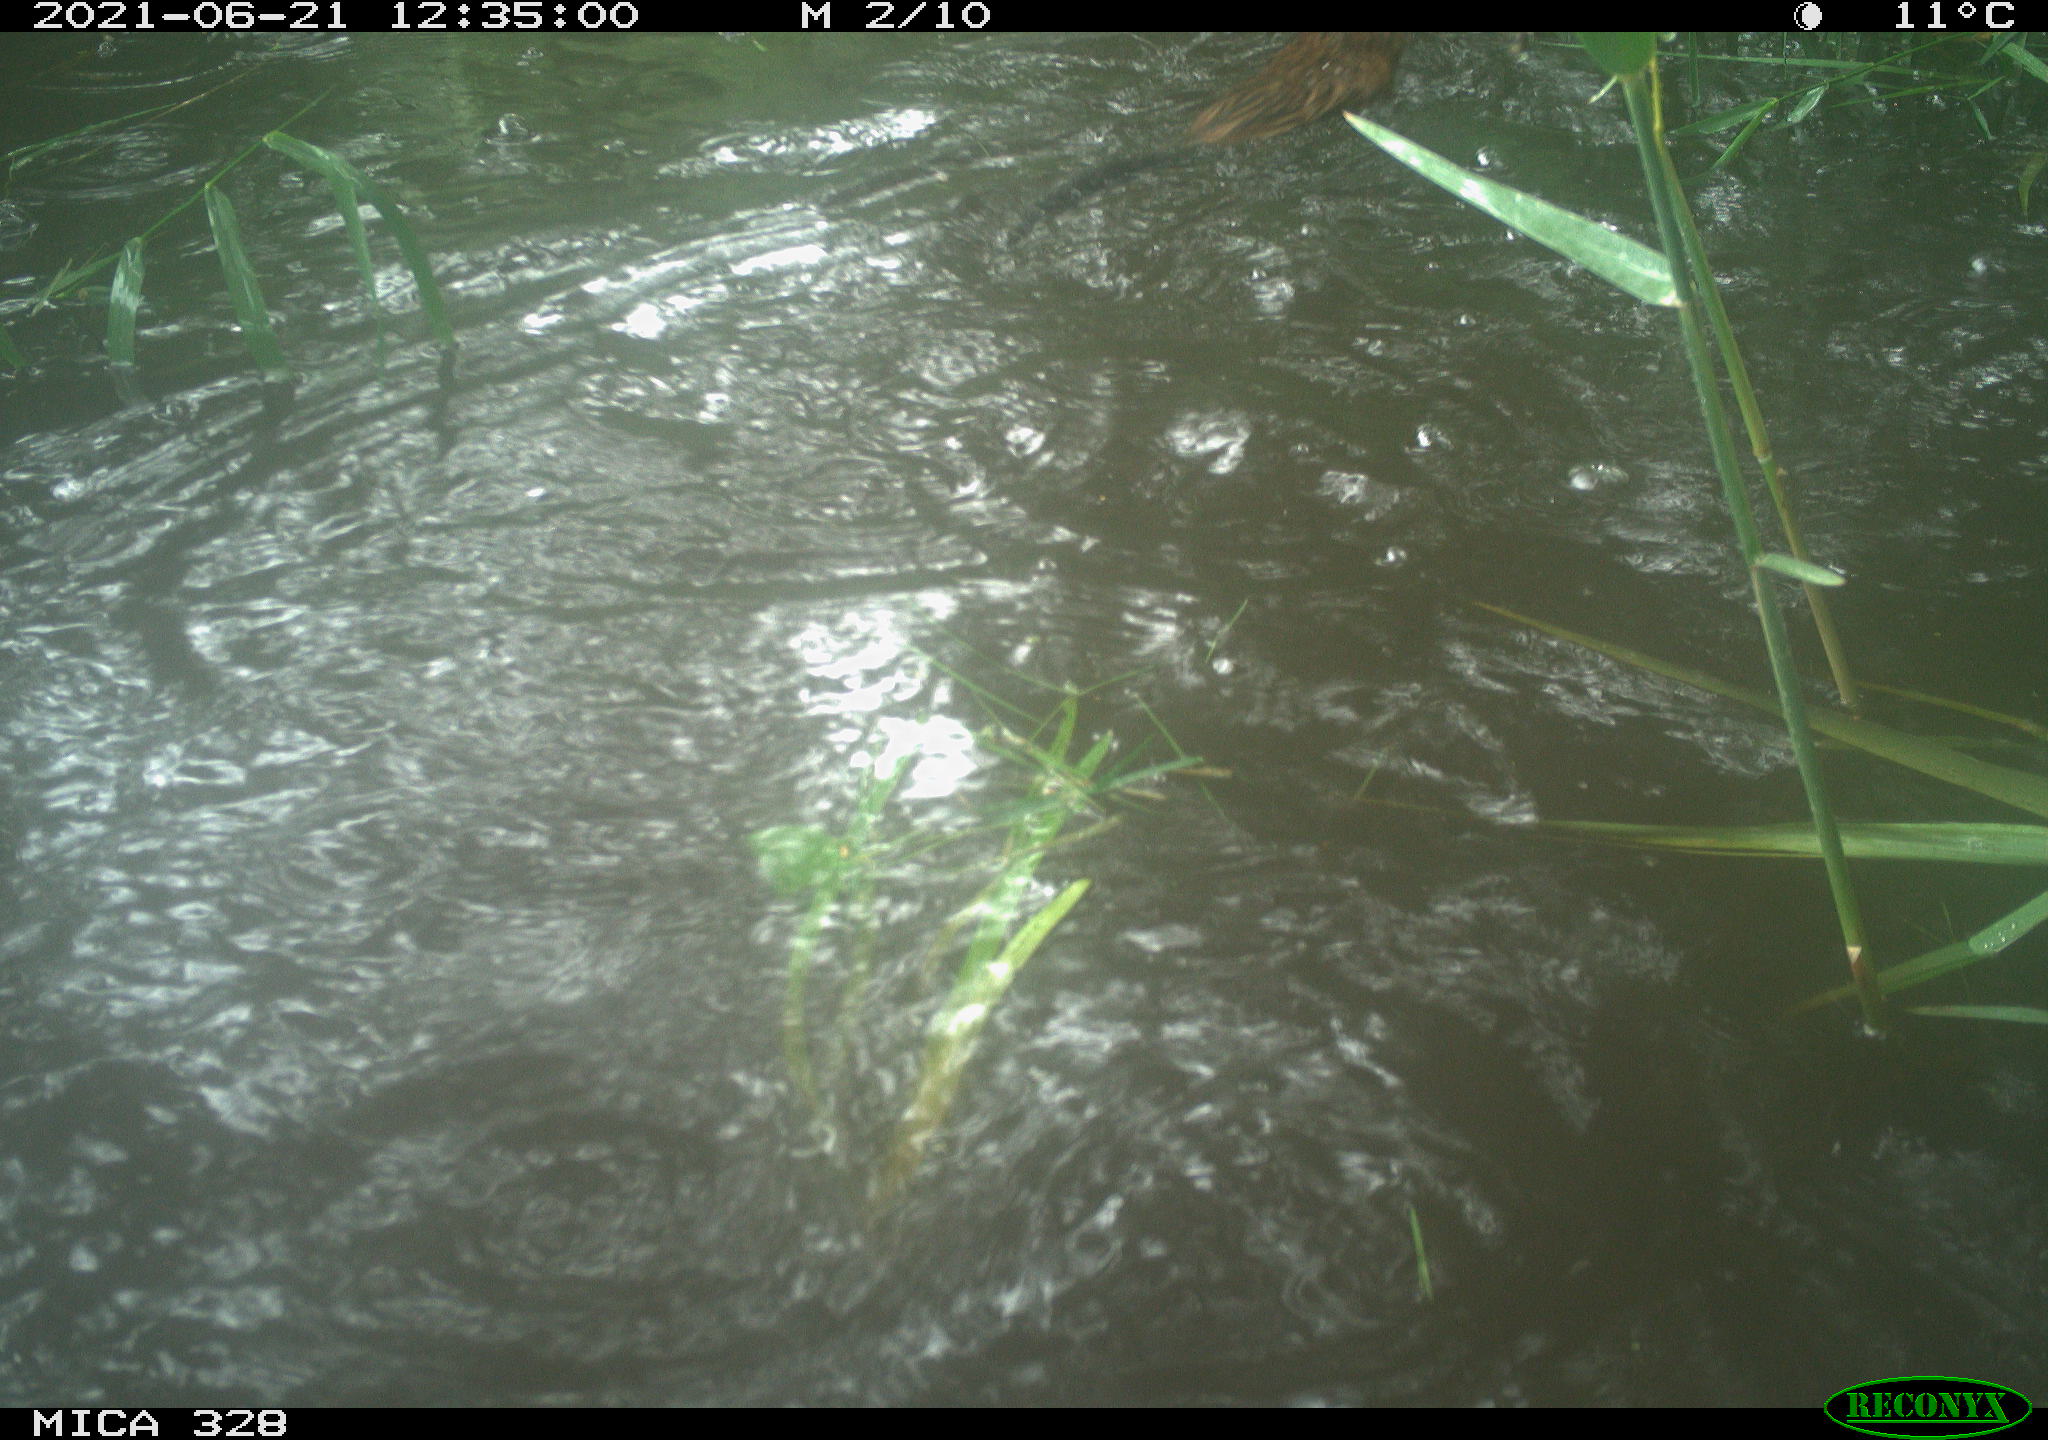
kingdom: Animalia
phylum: Chordata
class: Mammalia
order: Rodentia
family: Cricetidae
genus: Ondatra
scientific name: Ondatra zibethicus
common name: Muskrat
